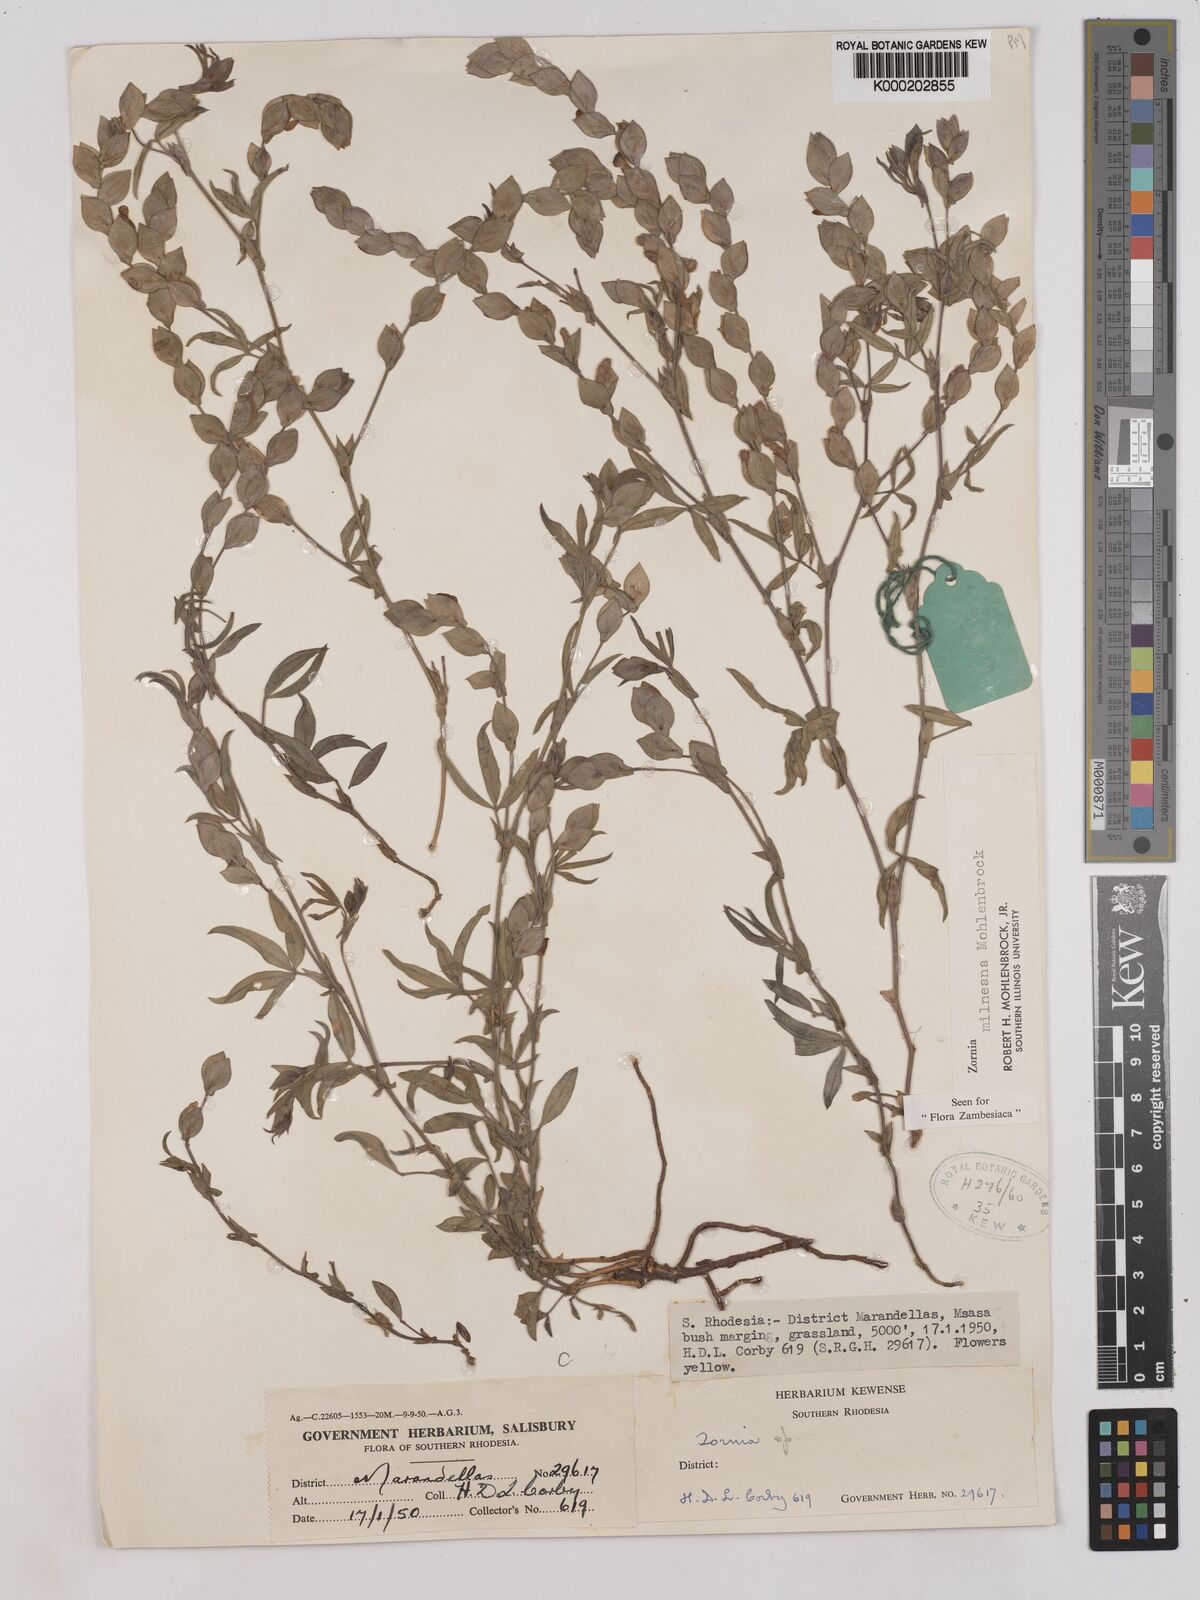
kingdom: Plantae
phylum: Tracheophyta
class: Magnoliopsida
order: Fabales
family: Fabaceae
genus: Zornia
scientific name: Zornia milneana
